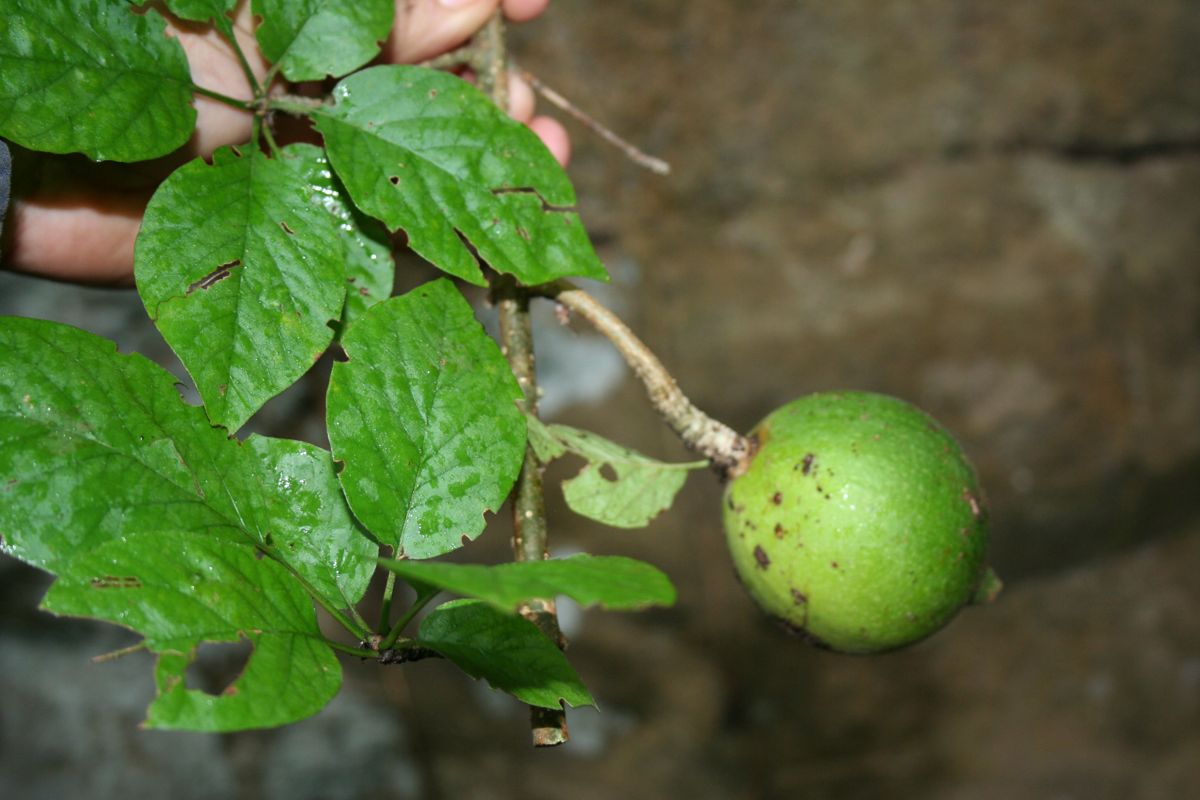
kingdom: Plantae
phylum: Tracheophyta
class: Magnoliopsida
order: Gentianales
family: Rubiaceae
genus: Randia
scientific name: Randia monantha
